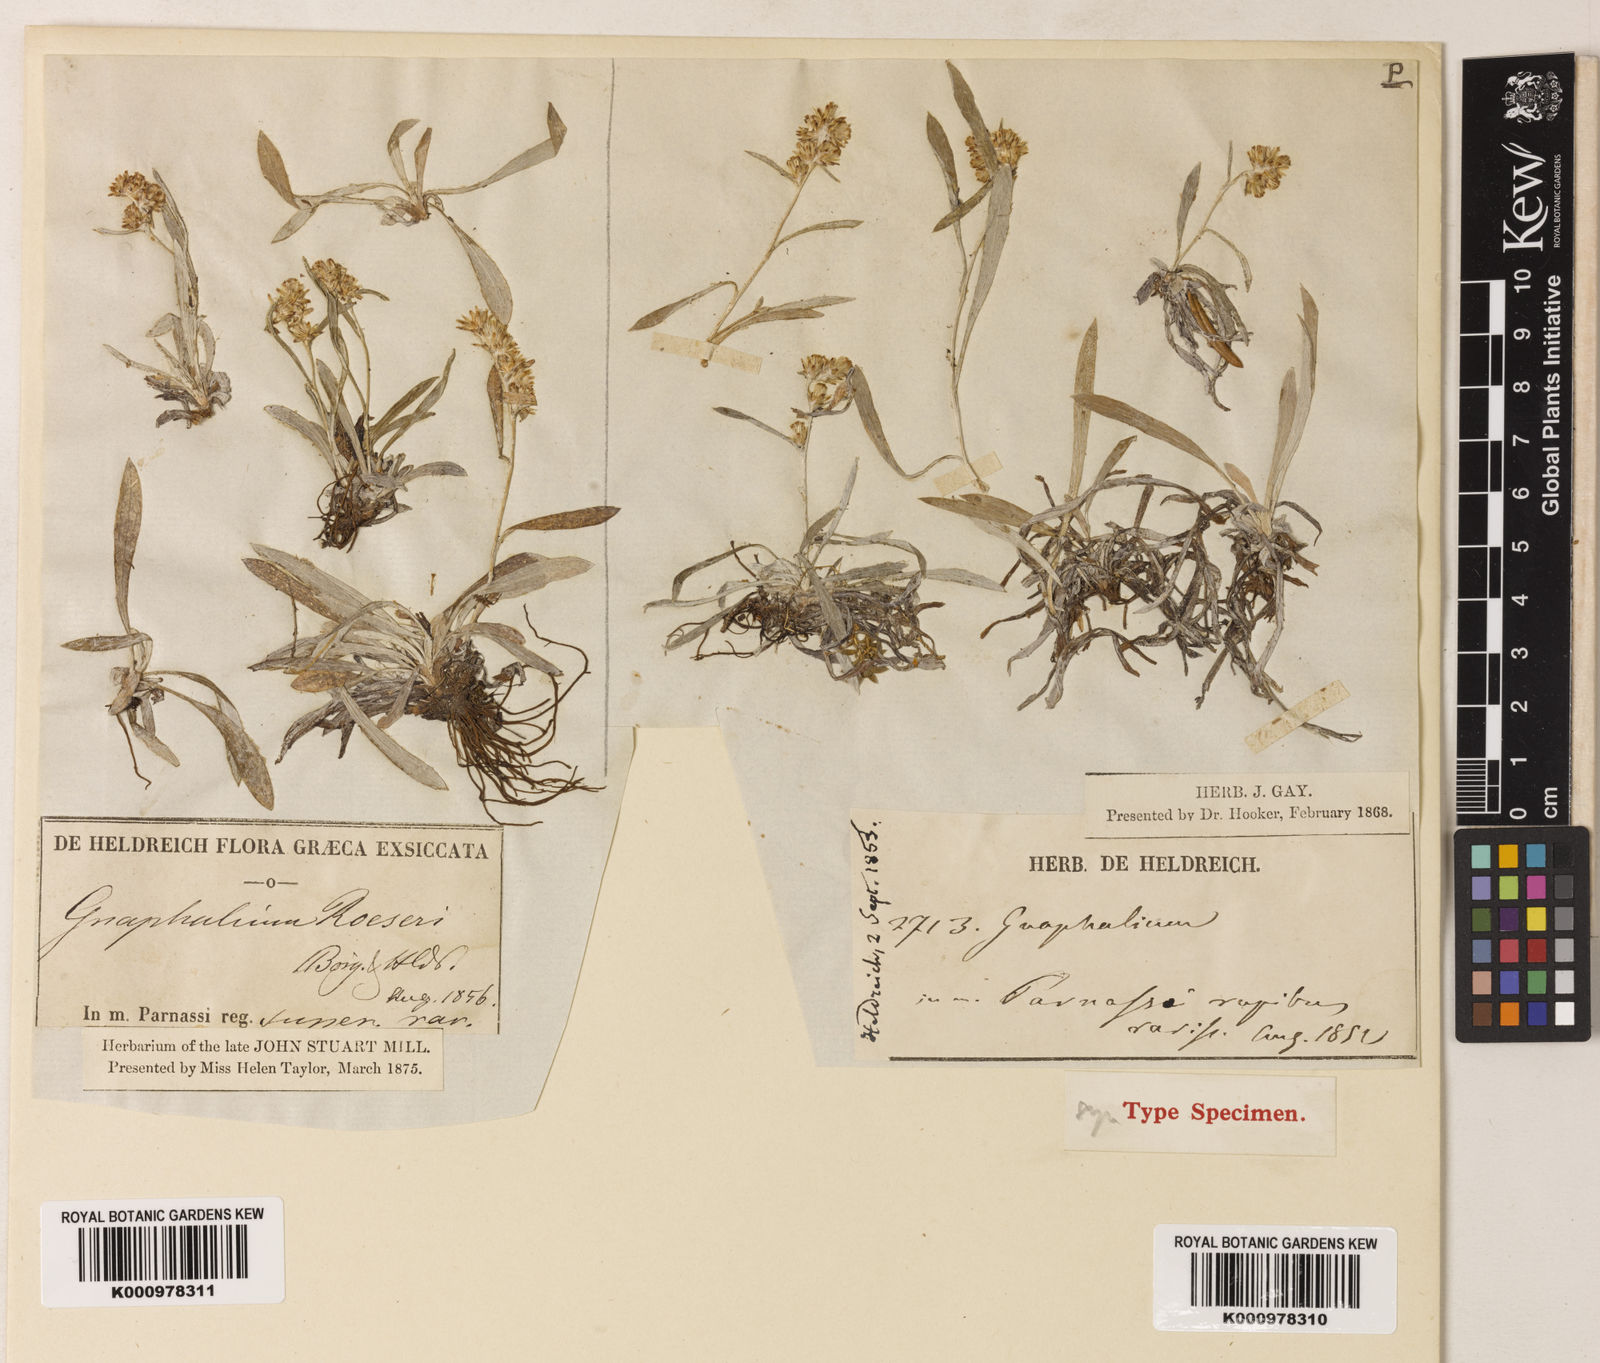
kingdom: Plantae
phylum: Tracheophyta
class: Magnoliopsida
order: Asterales
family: Asteraceae
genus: Omalotheca
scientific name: Omalotheca roeseri
